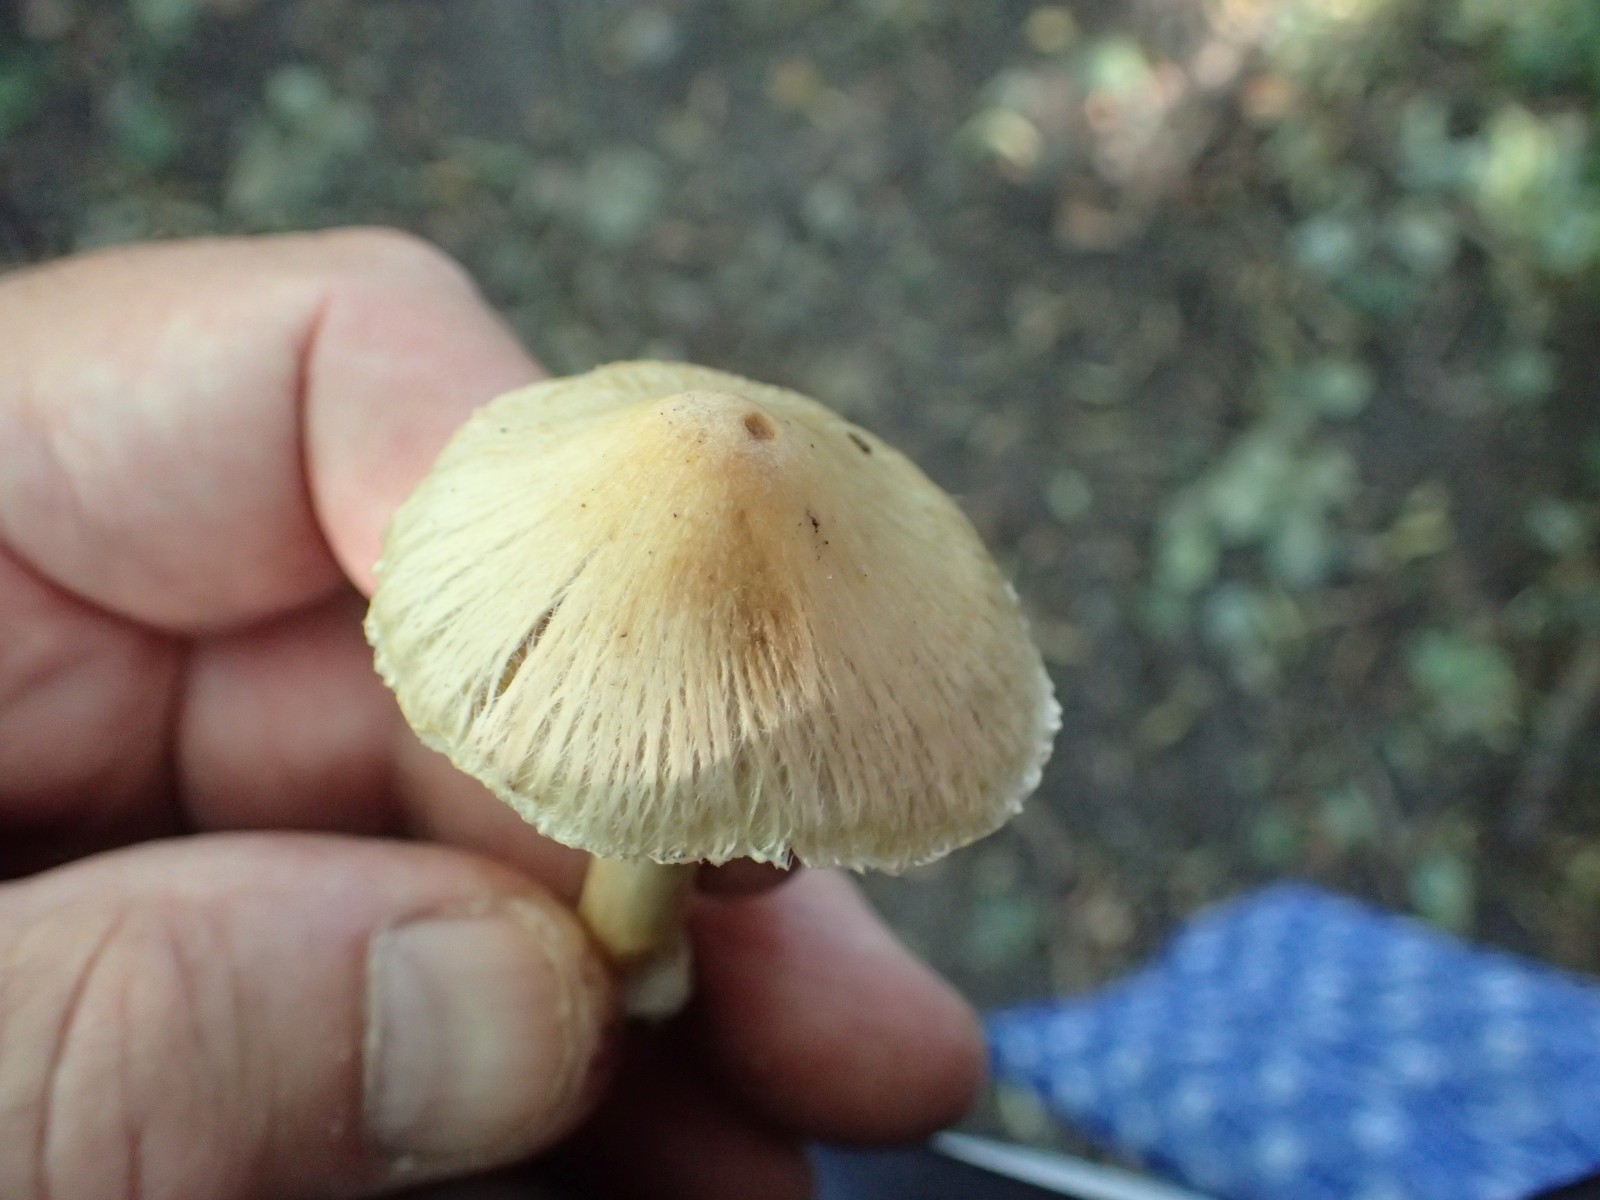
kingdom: Fungi
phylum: Basidiomycota
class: Agaricomycetes
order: Agaricales
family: Inocybaceae
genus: Pseudosperma
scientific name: Pseudosperma
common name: trævlhat
